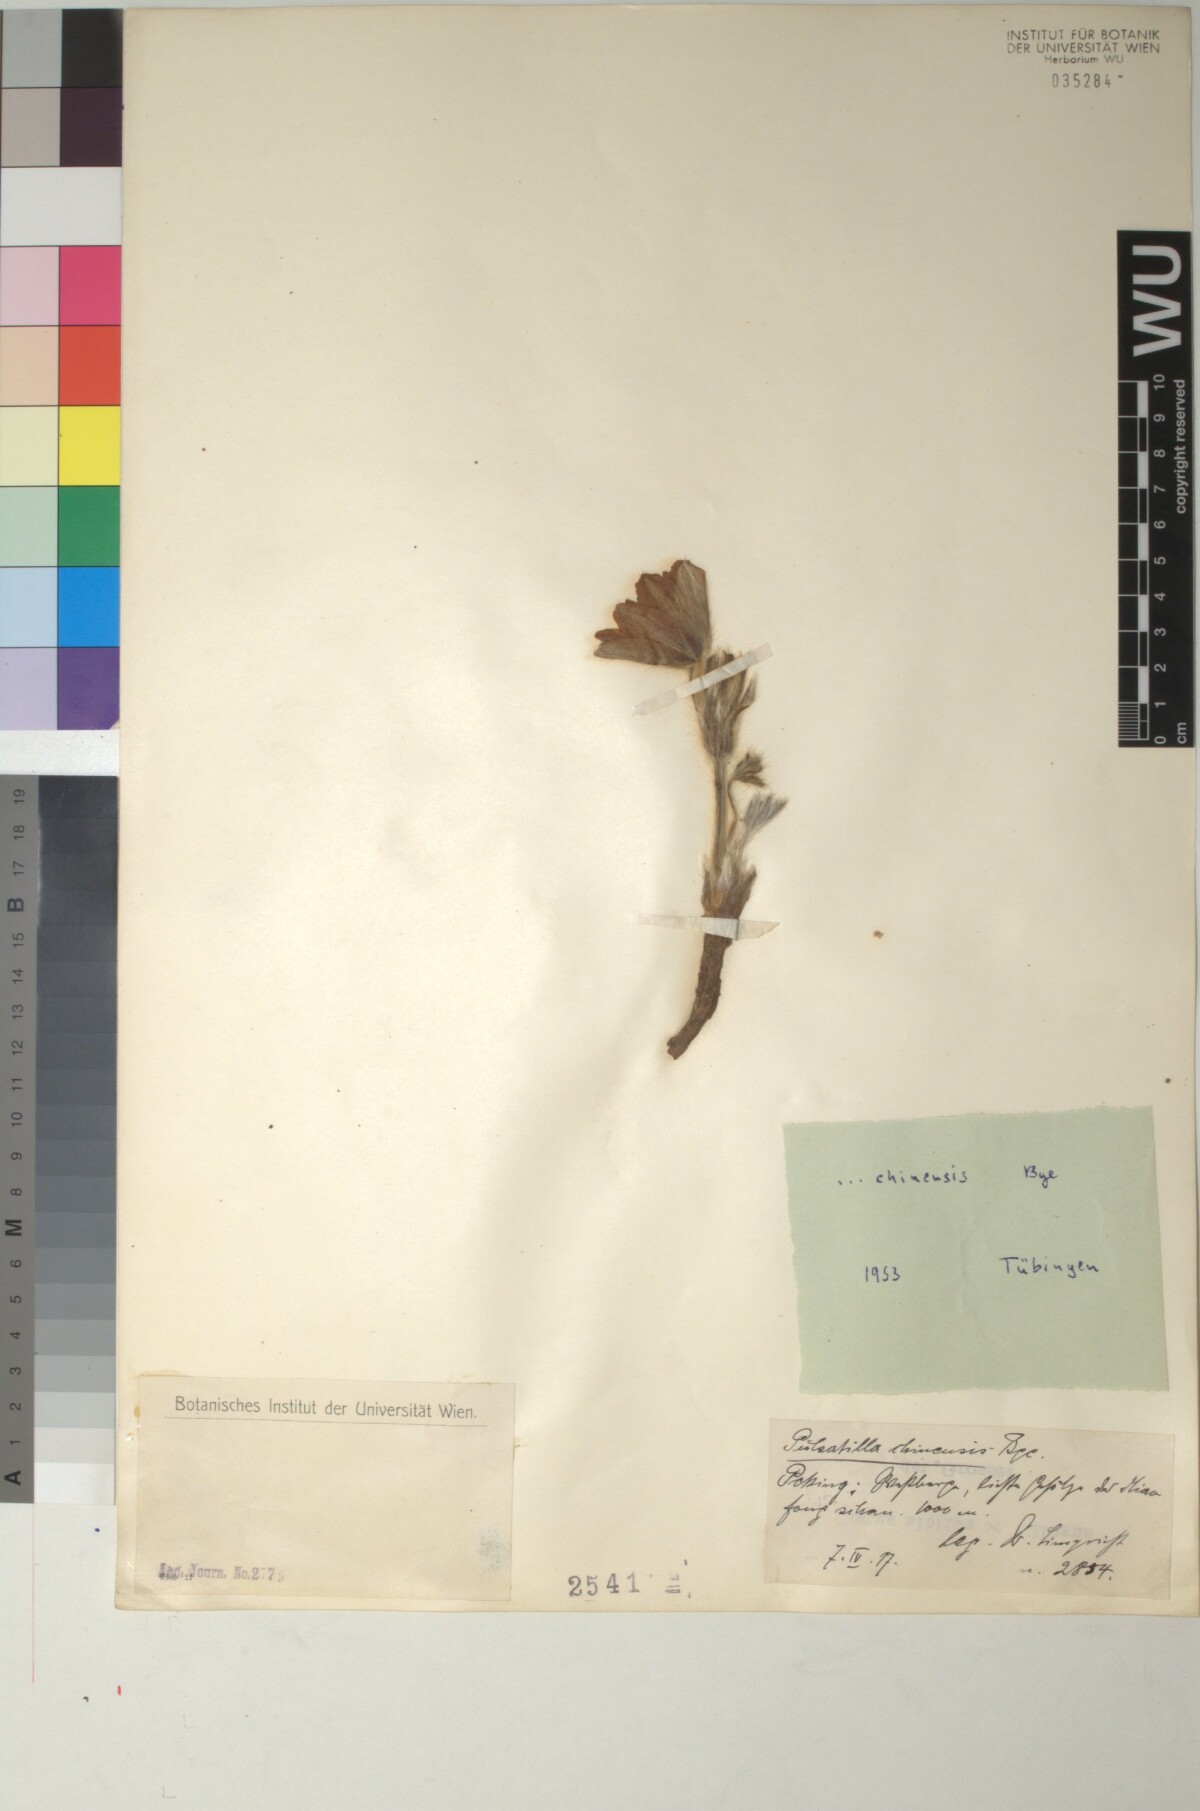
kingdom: Plantae
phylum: Tracheophyta
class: Magnoliopsida
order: Ranunculales
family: Ranunculaceae
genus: Pulsatilla
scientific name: Pulsatilla chinensis
